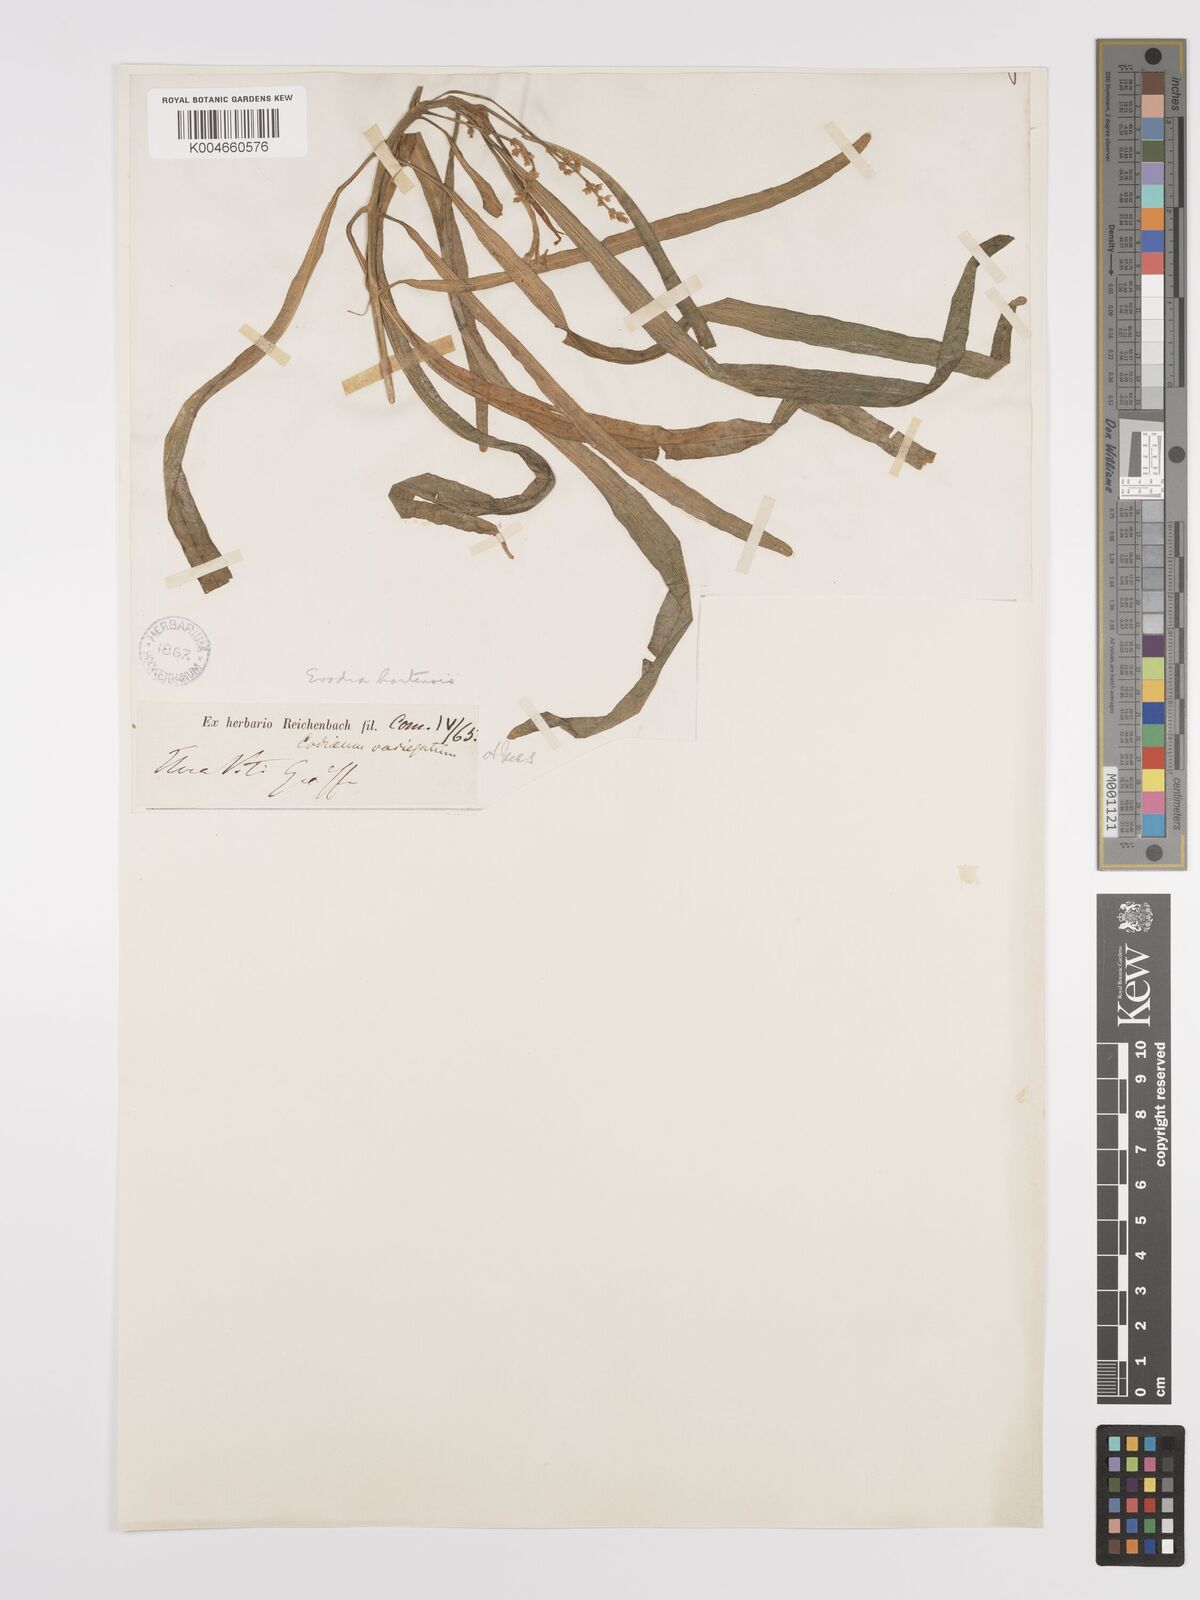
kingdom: Plantae
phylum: Tracheophyta
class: Magnoliopsida
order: Sapindales
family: Rutaceae
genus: Euodia
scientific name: Euodia hortensis
